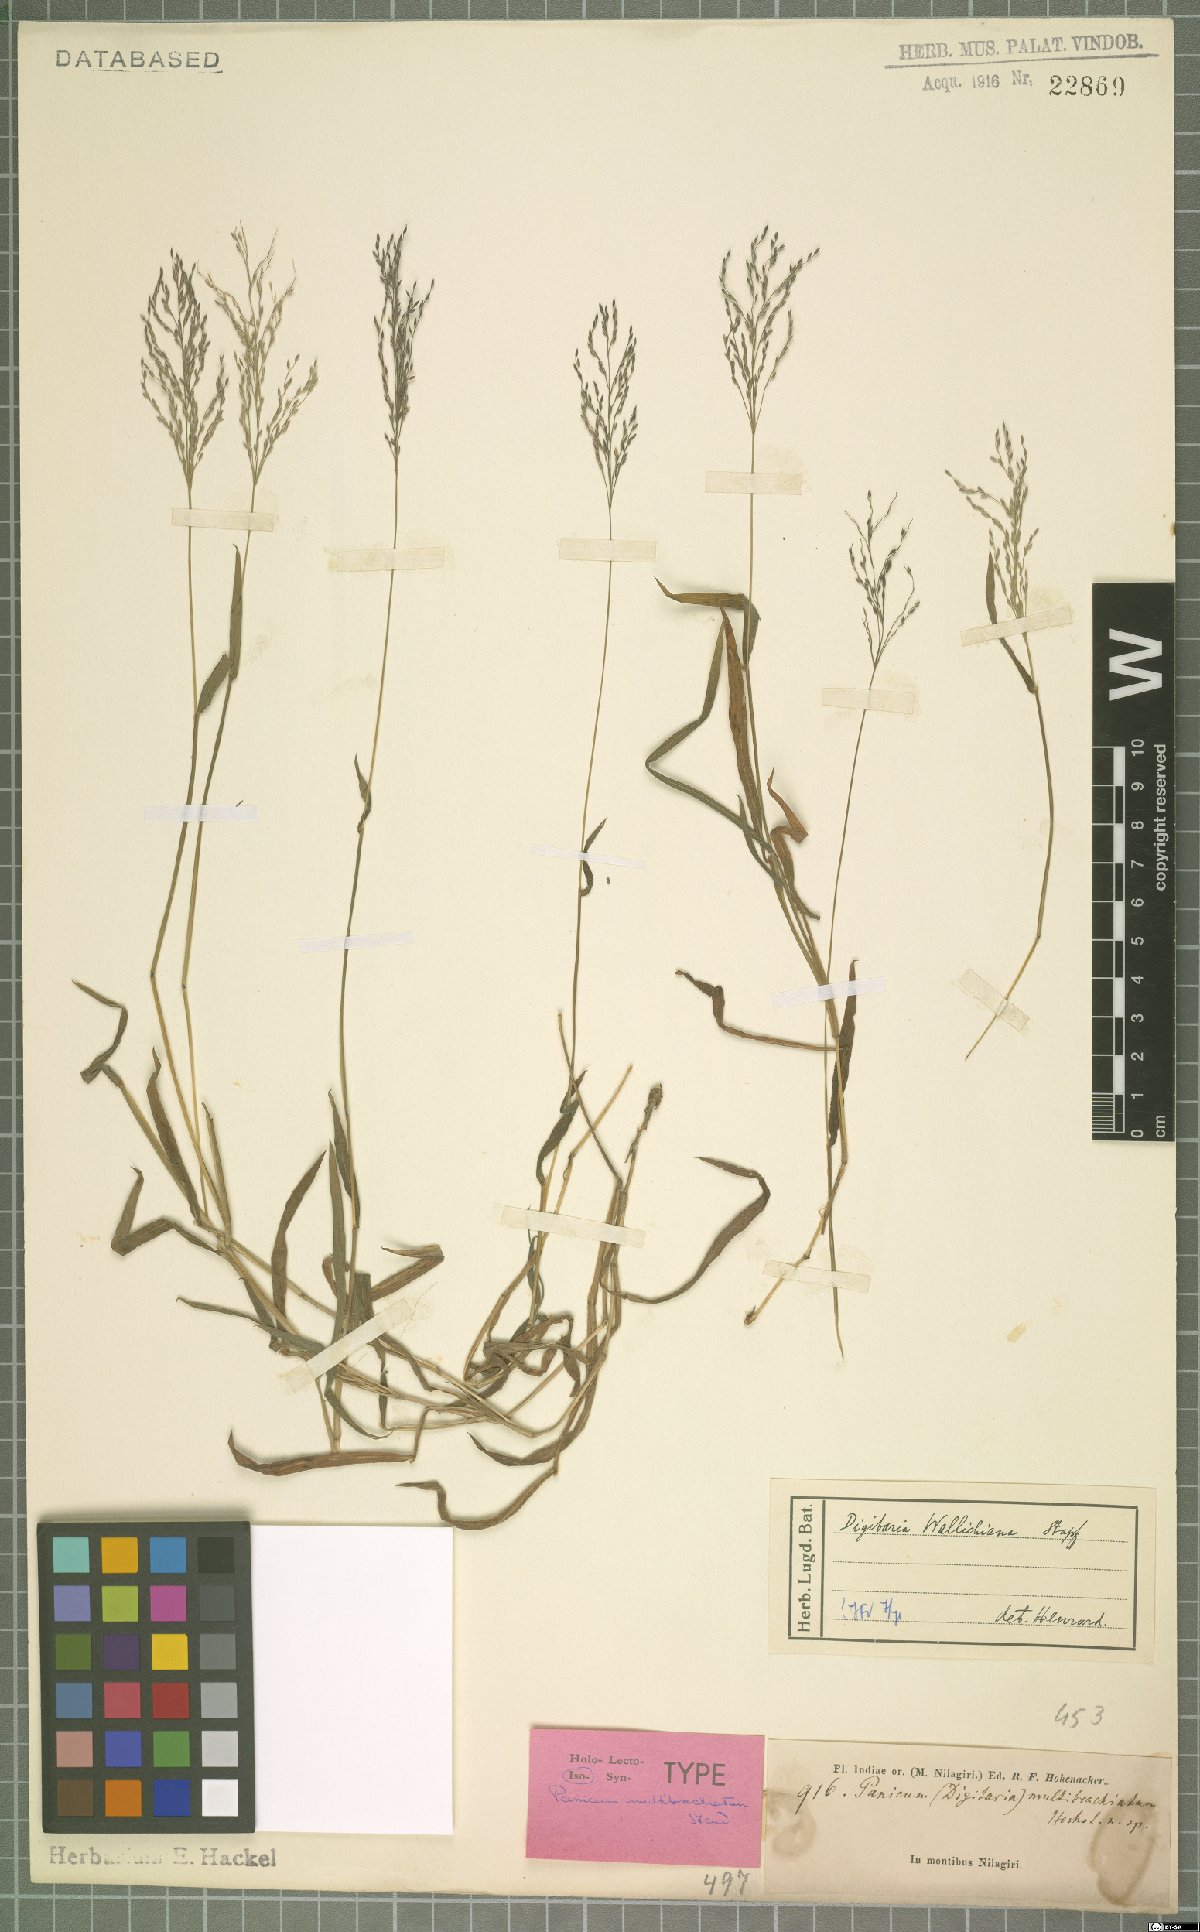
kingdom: Plantae
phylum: Tracheophyta
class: Liliopsida
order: Poales
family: Poaceae
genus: Digitaria
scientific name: Digitaria wallichiana
